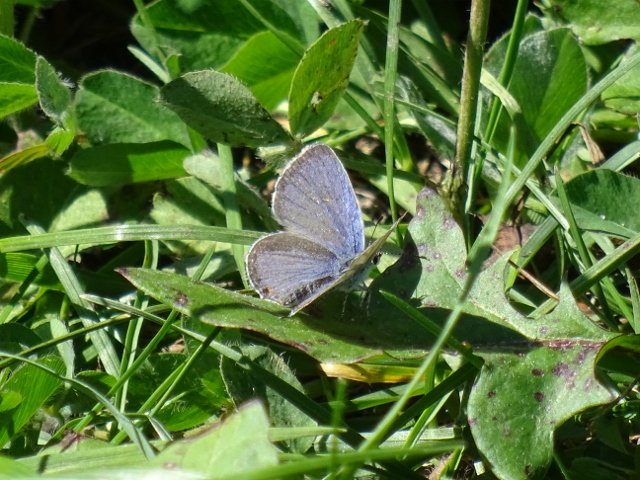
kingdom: Animalia
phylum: Arthropoda
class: Insecta
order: Lepidoptera
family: Lycaenidae
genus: Elkalyce
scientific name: Elkalyce comyntas
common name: Eastern Tailed-Blue
